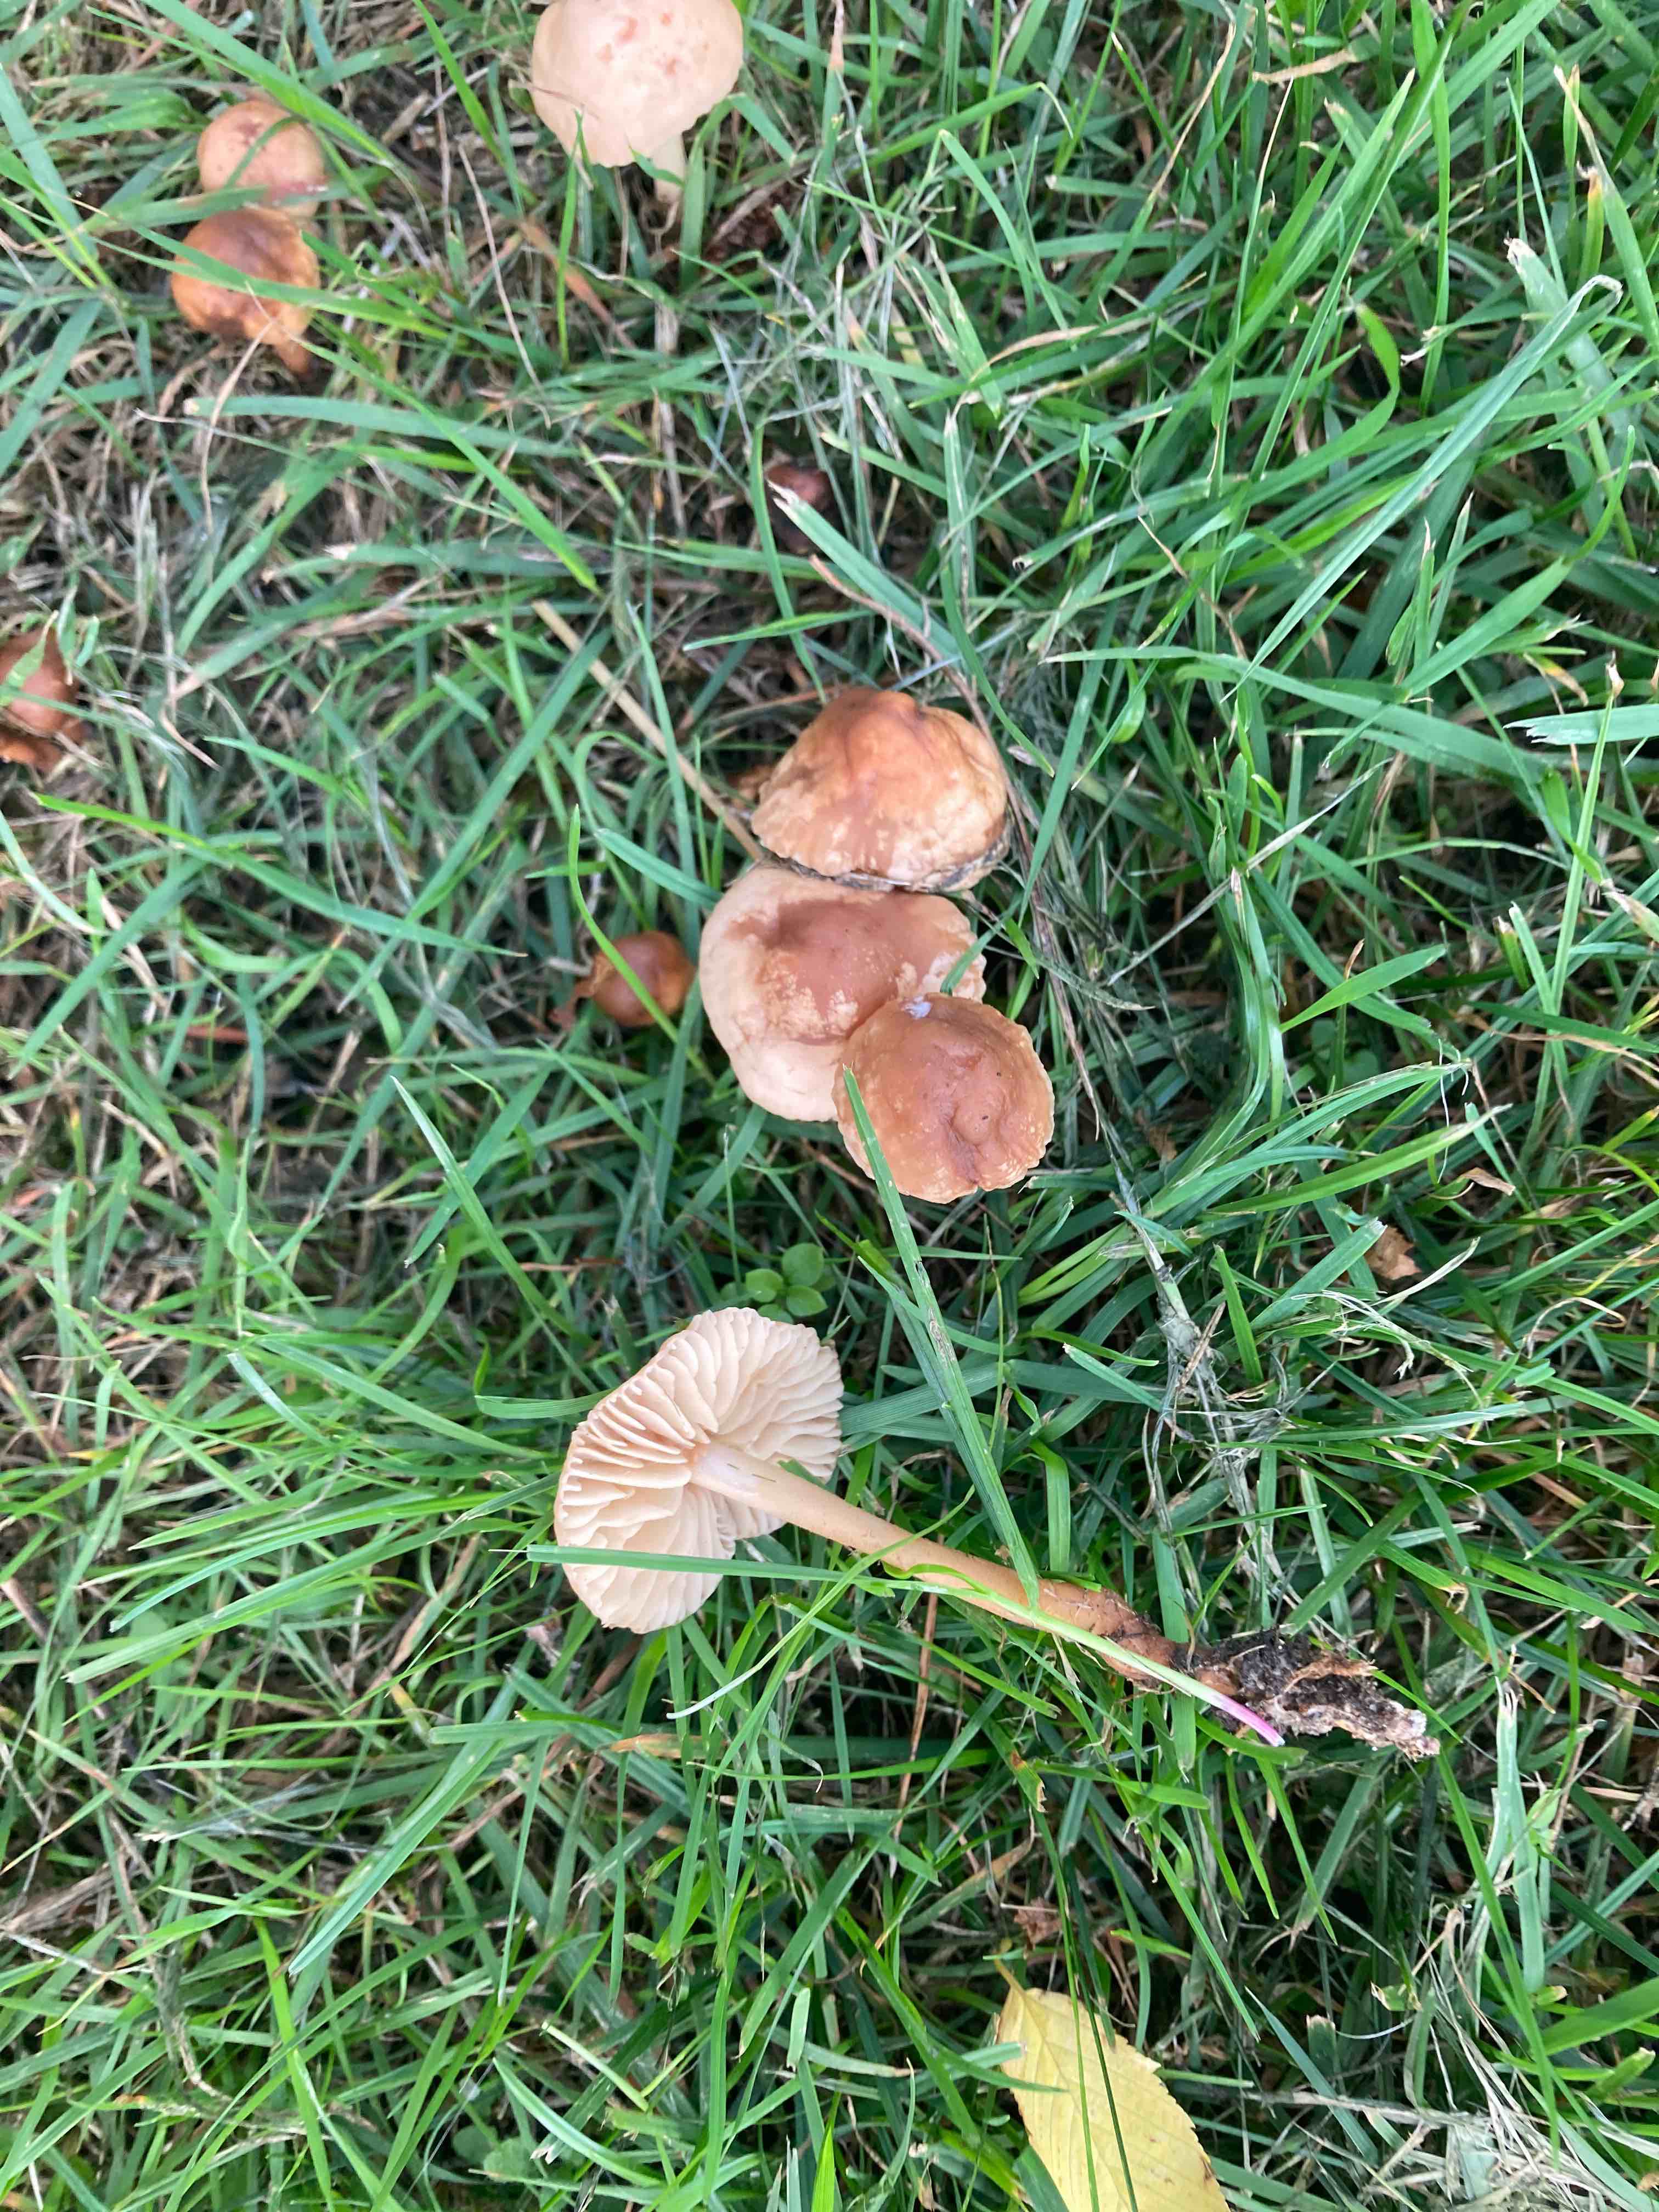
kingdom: Fungi
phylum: Basidiomycota
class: Agaricomycetes
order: Agaricales
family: Marasmiaceae
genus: Marasmius
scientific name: Marasmius oreades
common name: elledans-bruskhat
